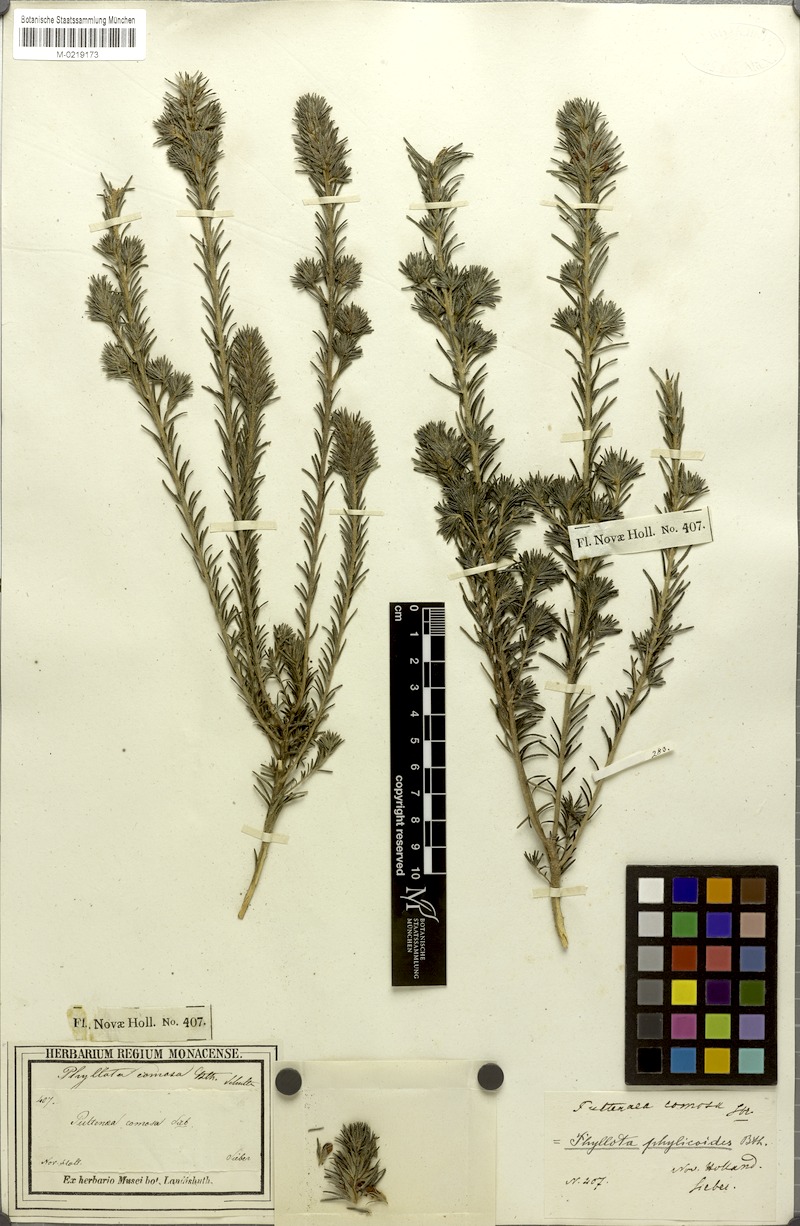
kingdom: Plantae
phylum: Tracheophyta
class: Magnoliopsida
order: Fabales
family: Fabaceae
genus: Phyllota
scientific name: Phyllota phylicoides
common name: Heath phyllota
